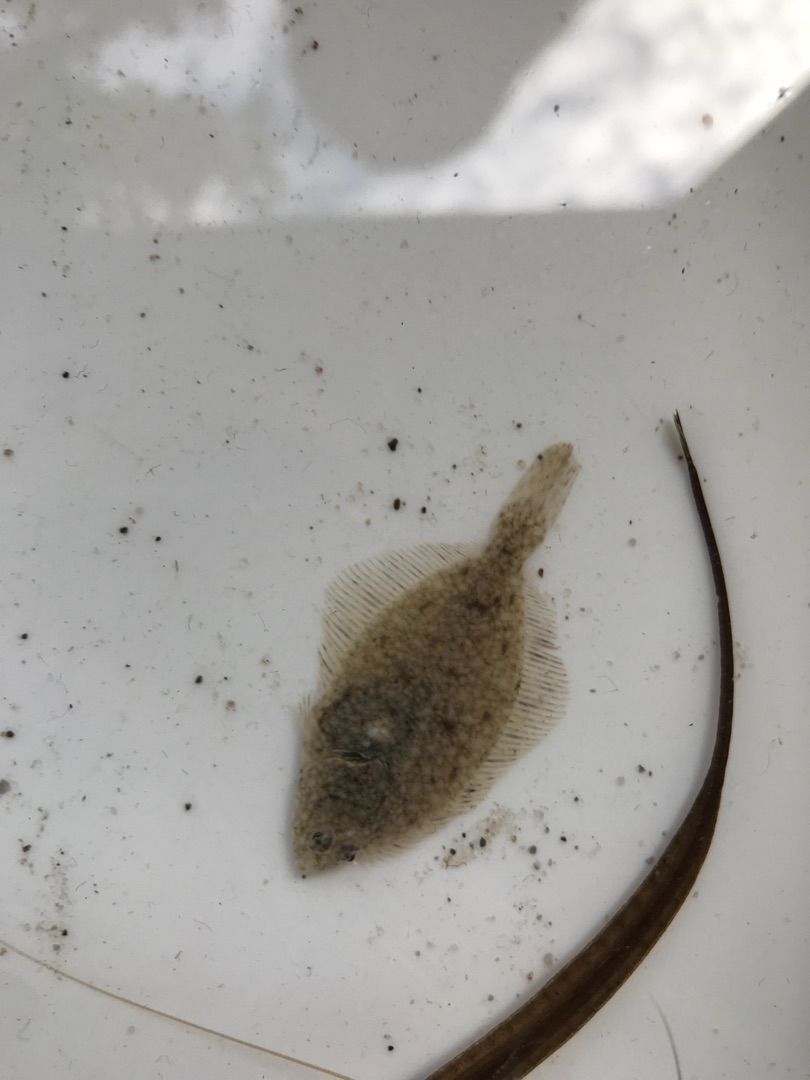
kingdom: Animalia
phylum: Chordata
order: Pleuronectiformes
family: Pleuronectidae
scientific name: Pleuronectidae
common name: Rødspættefamilien
